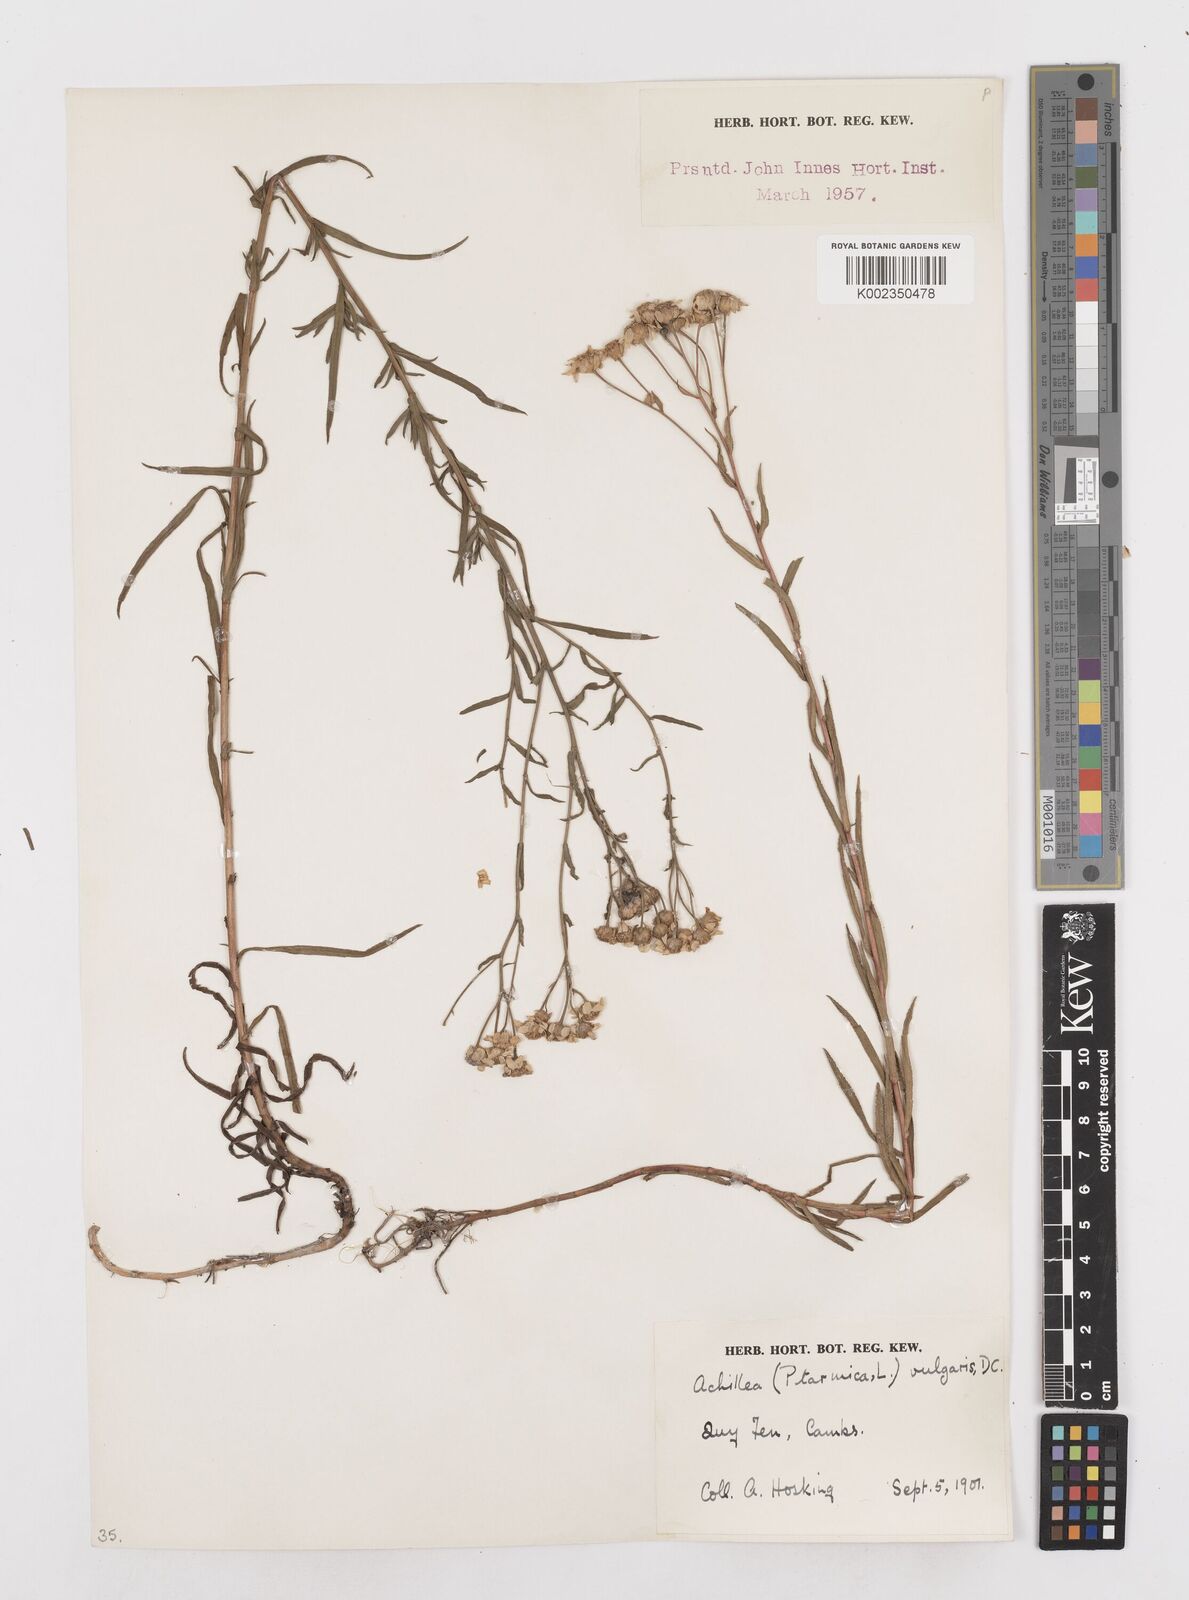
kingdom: Plantae
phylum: Tracheophyta
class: Magnoliopsida
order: Asterales
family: Asteraceae
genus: Achillea
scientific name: Achillea ptarmica
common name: Sneezeweed
